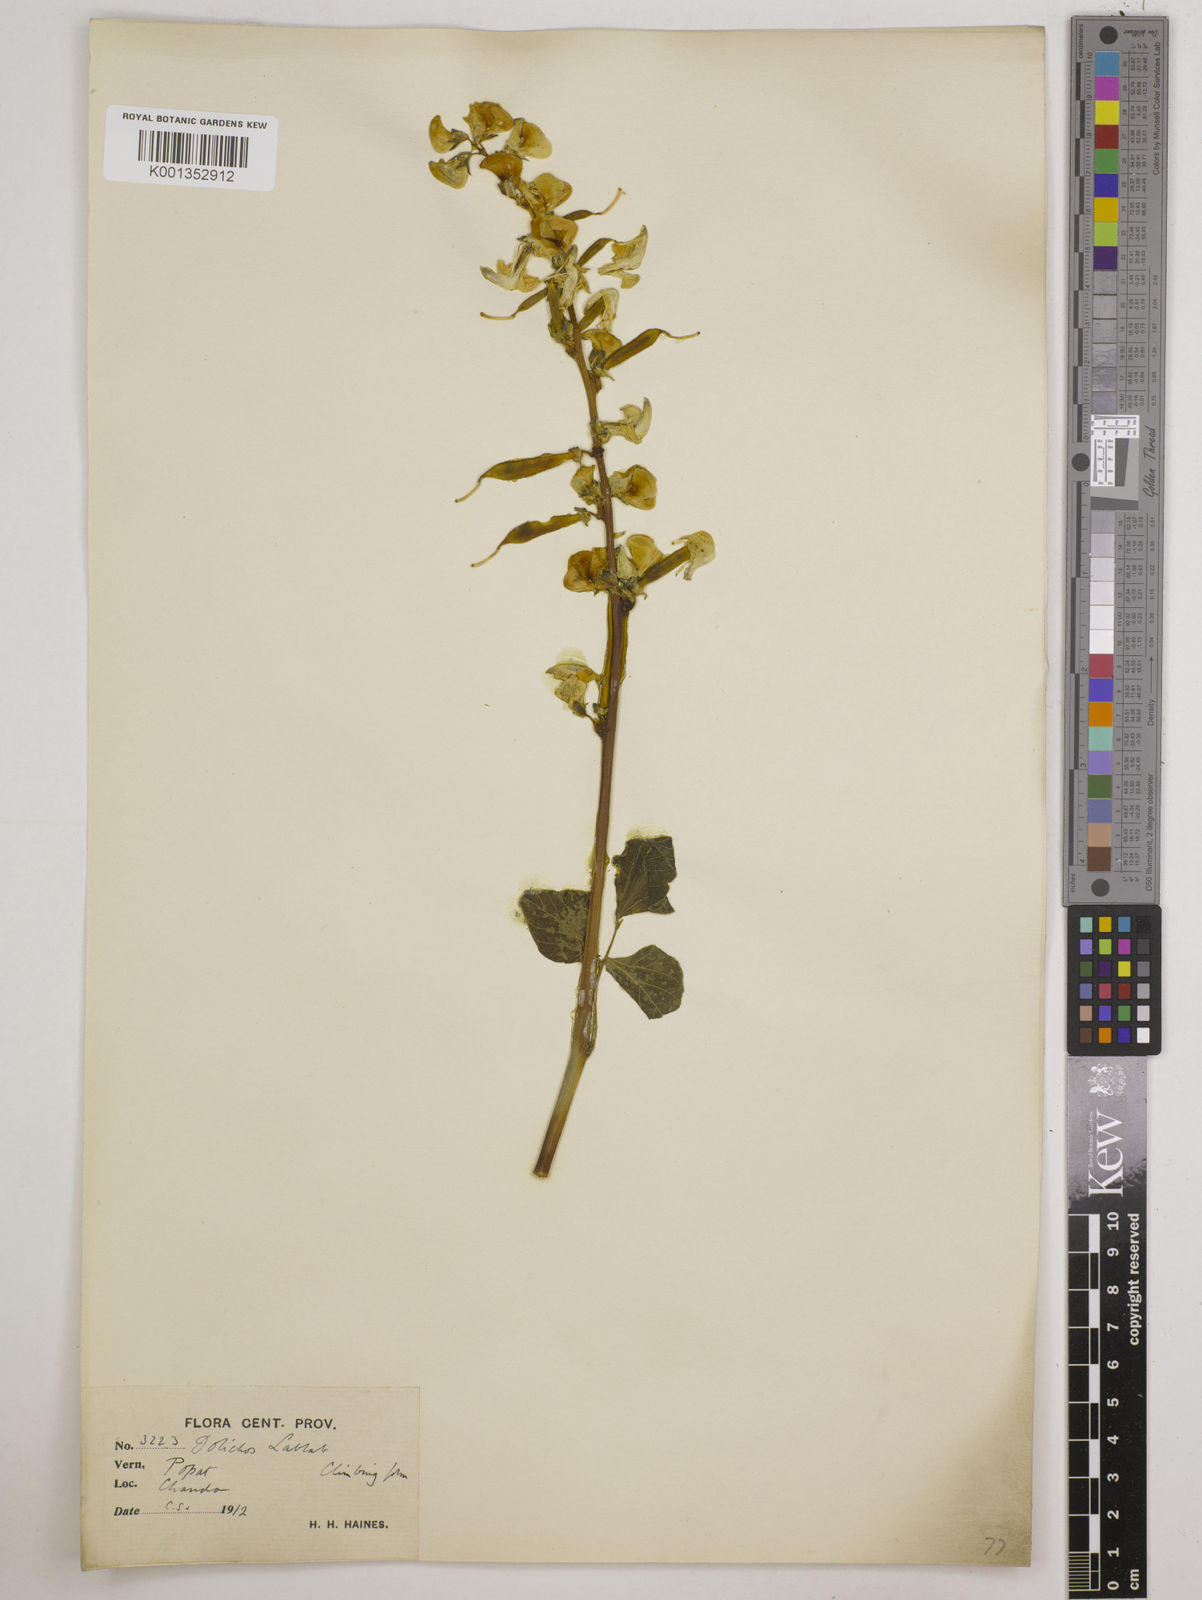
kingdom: Plantae
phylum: Tracheophyta
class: Magnoliopsida
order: Fabales
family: Fabaceae
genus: Lablab
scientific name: Lablab purpureus
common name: Lablab-bean
